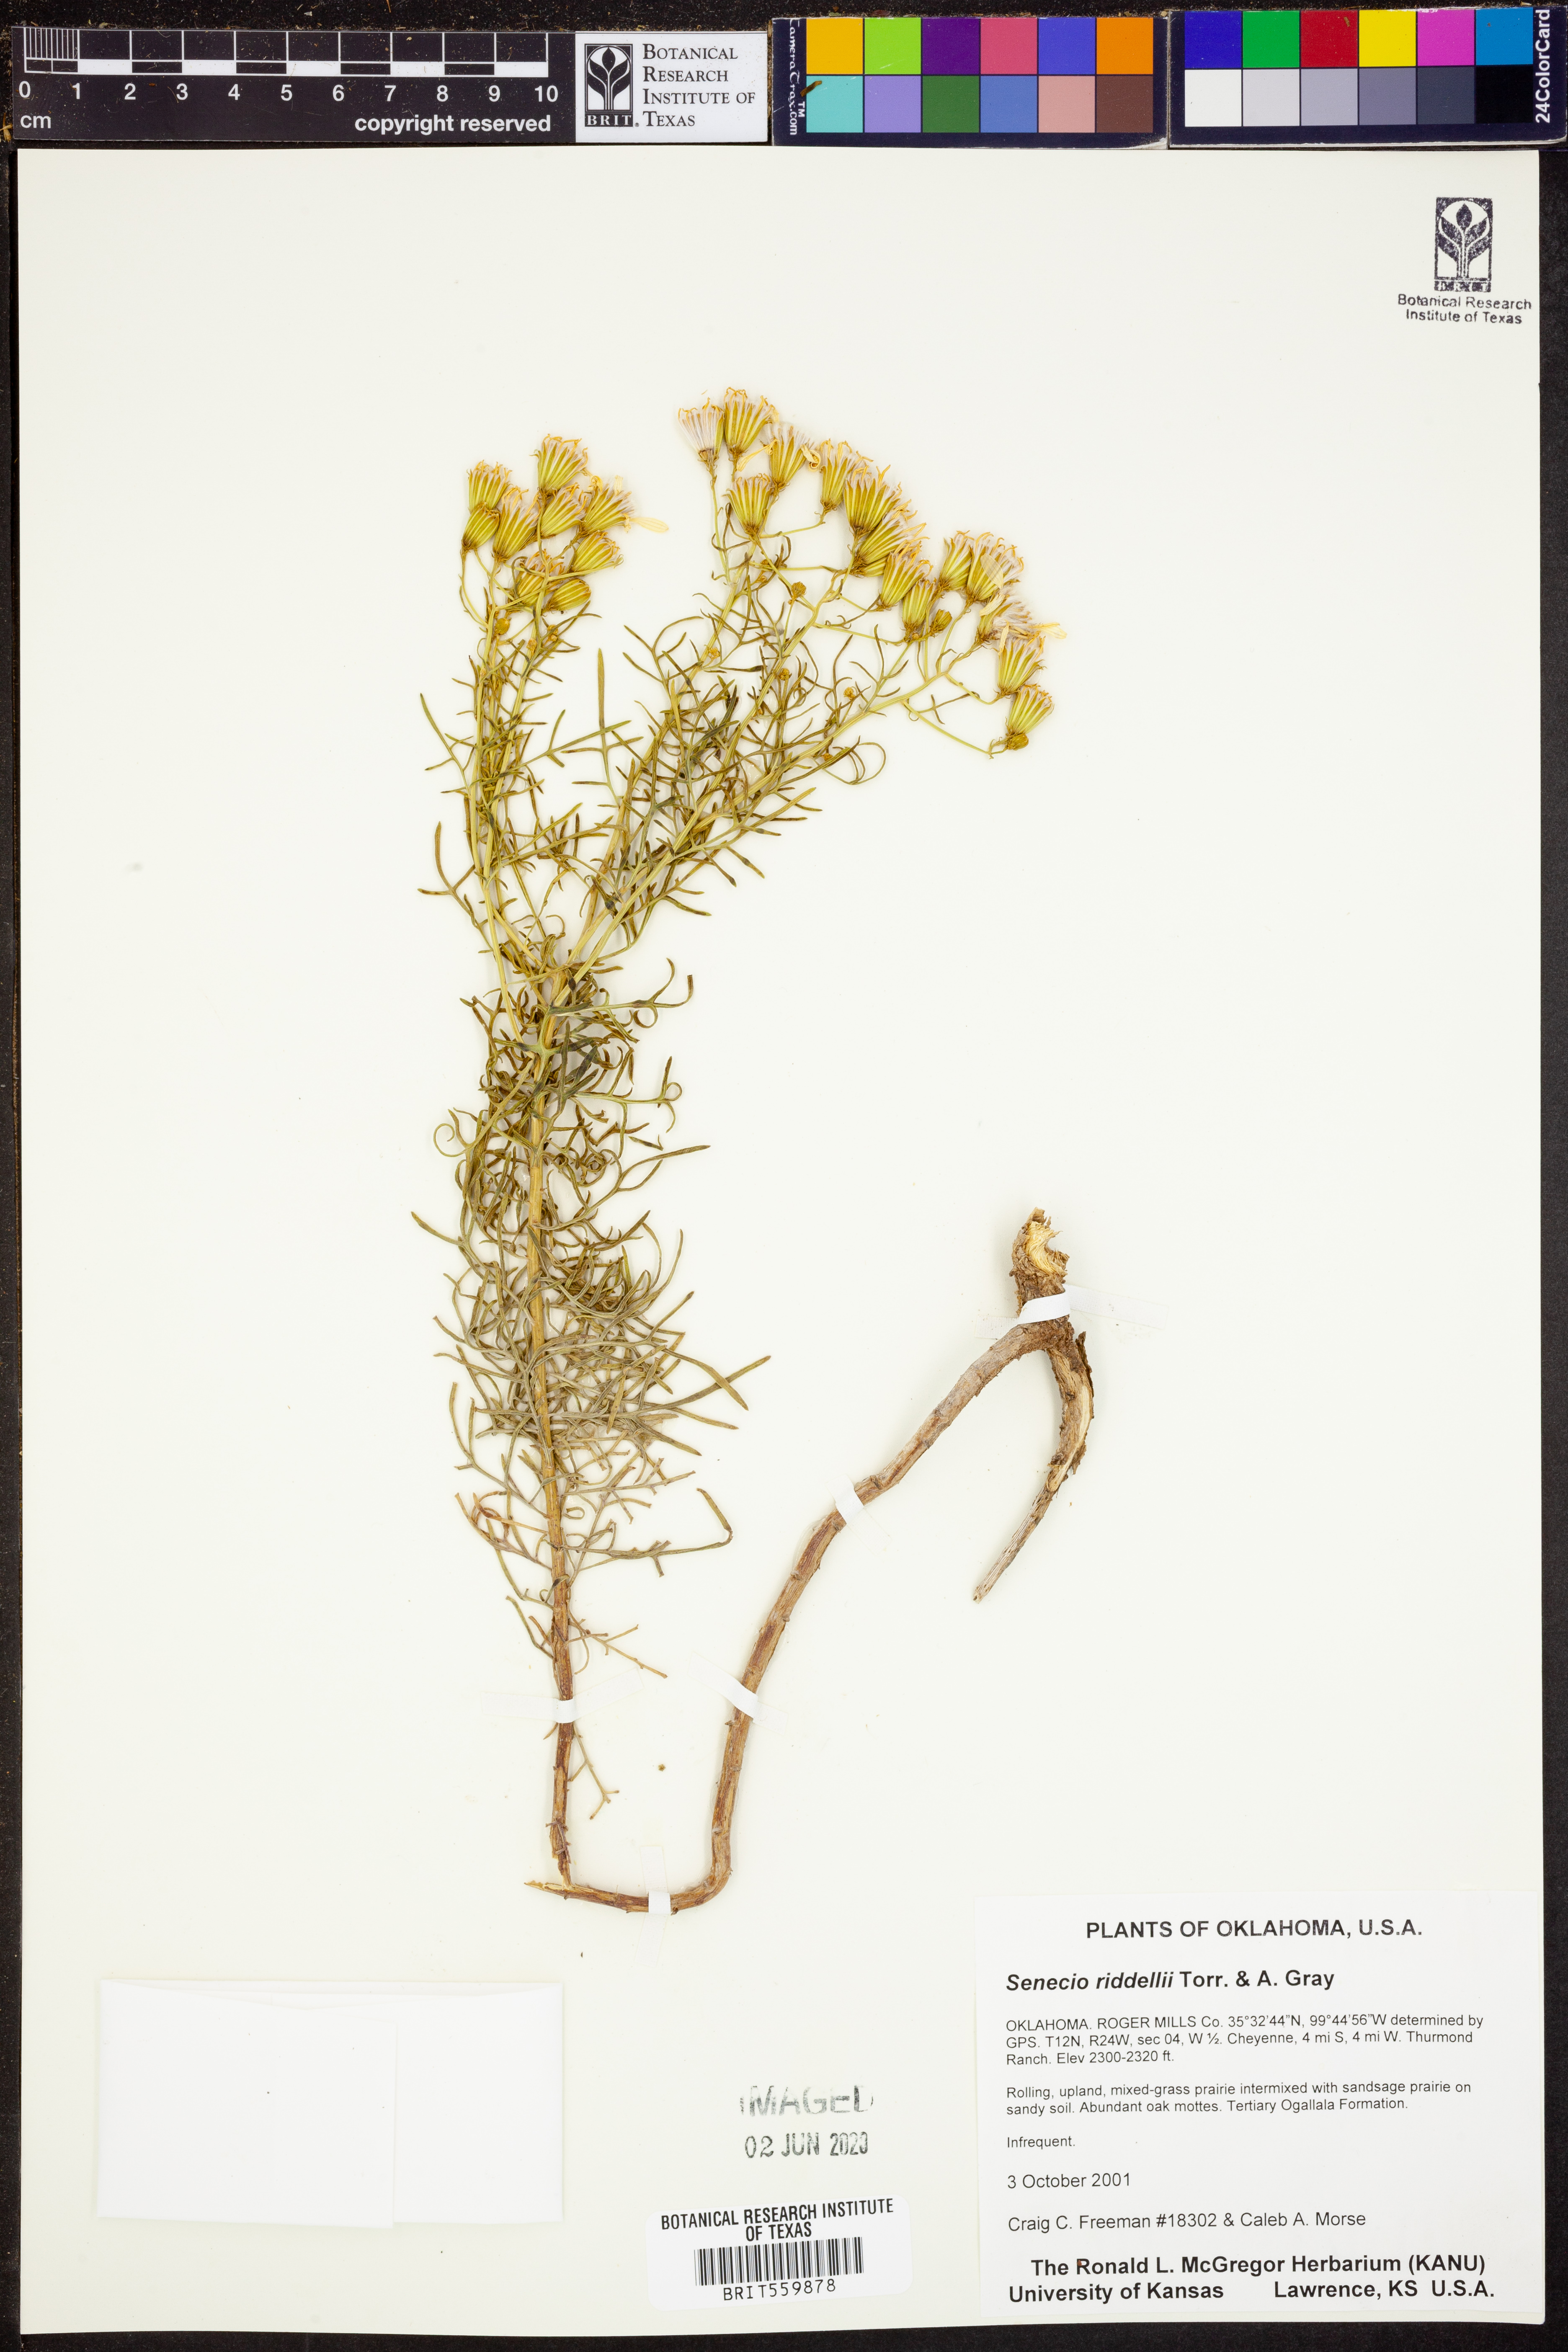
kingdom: Plantae
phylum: Tracheophyta
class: Magnoliopsida
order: Asterales
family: Asteraceae
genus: Senecio
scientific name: Senecio riddellii
